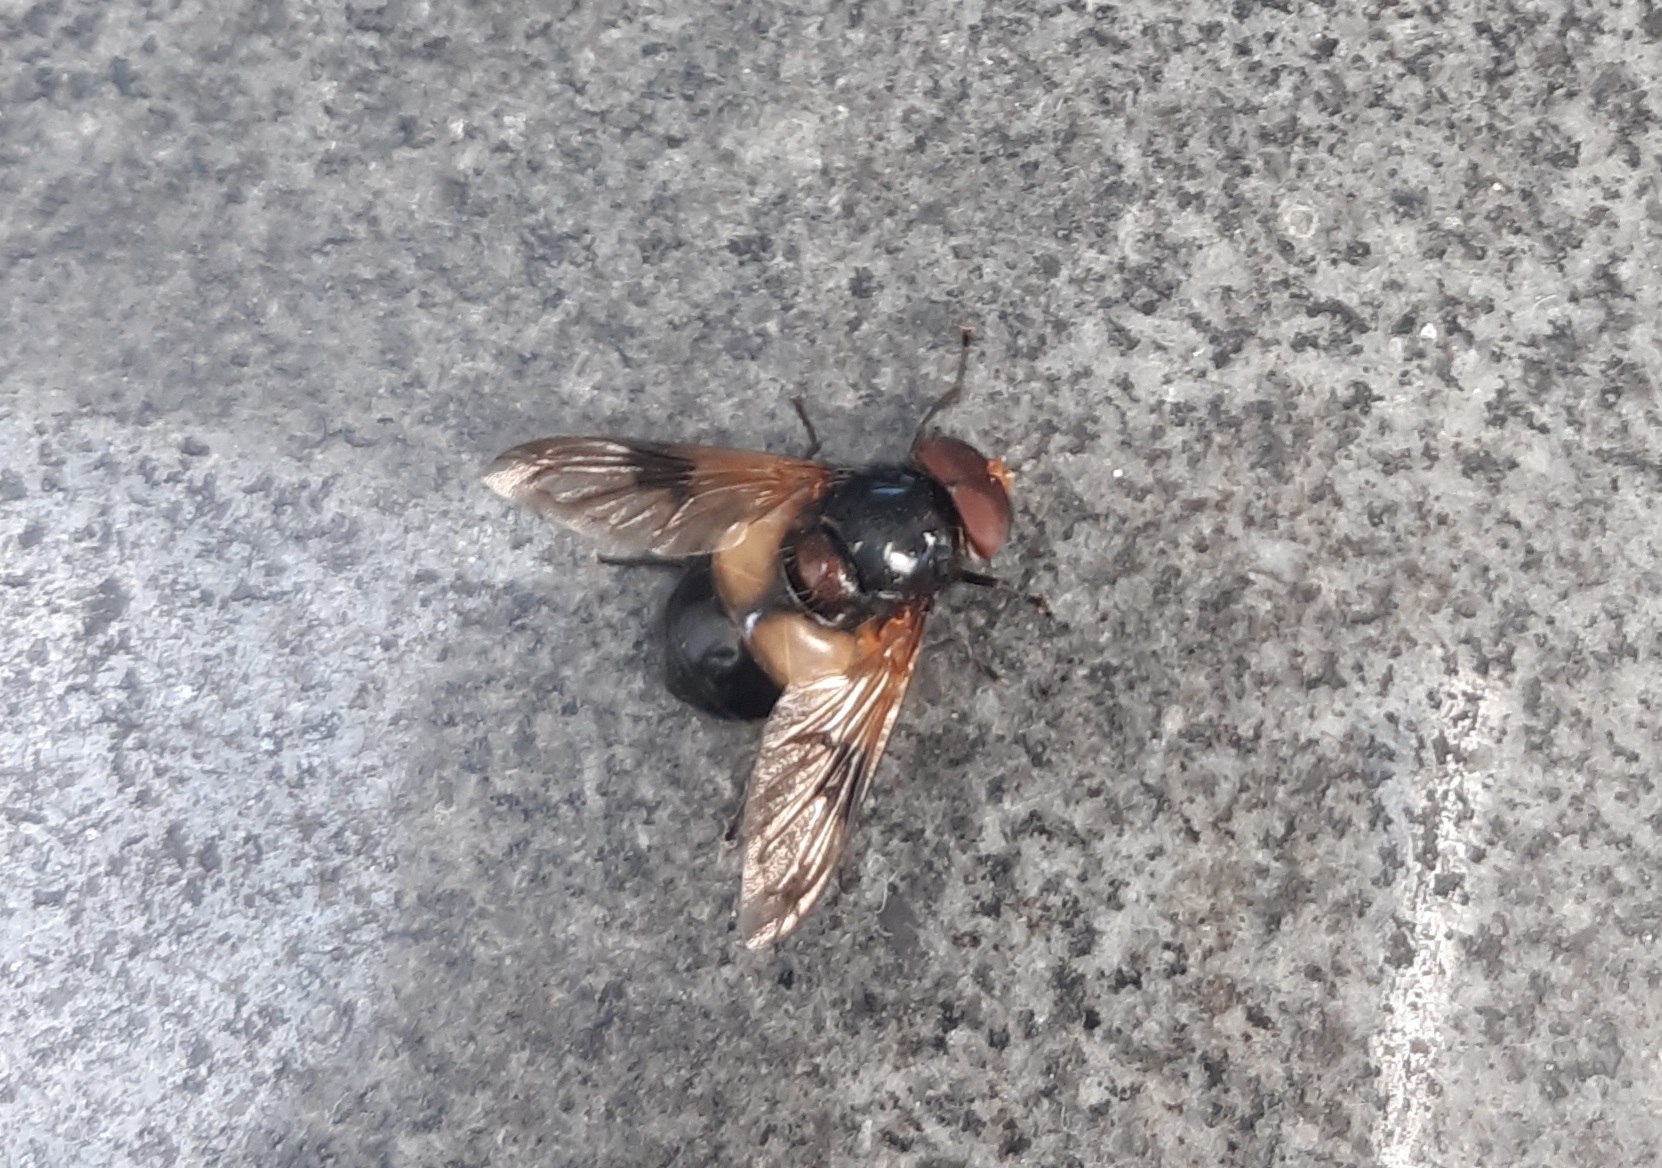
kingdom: Animalia
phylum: Arthropoda
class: Insecta
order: Diptera
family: Syrphidae
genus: Volucella
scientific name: Volucella pellucens
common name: Hvidbåndet humlesvirreflue
